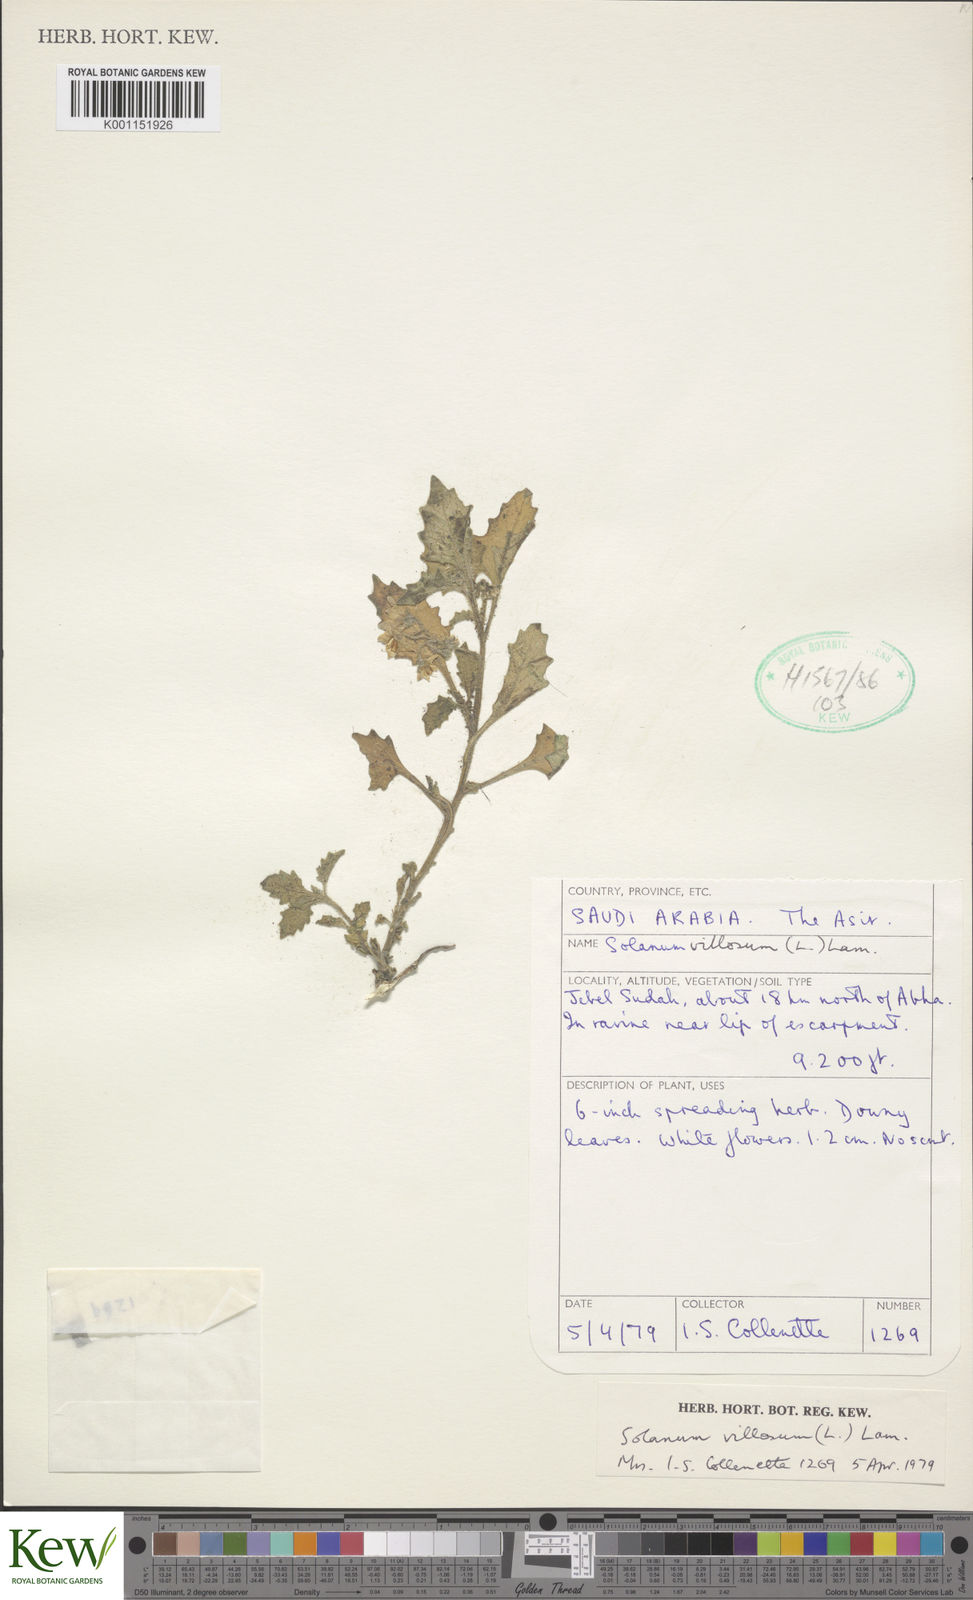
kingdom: Plantae
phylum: Tracheophyta
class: Magnoliopsida
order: Solanales
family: Solanaceae
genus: Solanum
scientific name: Solanum villosum
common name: Red nightshade
